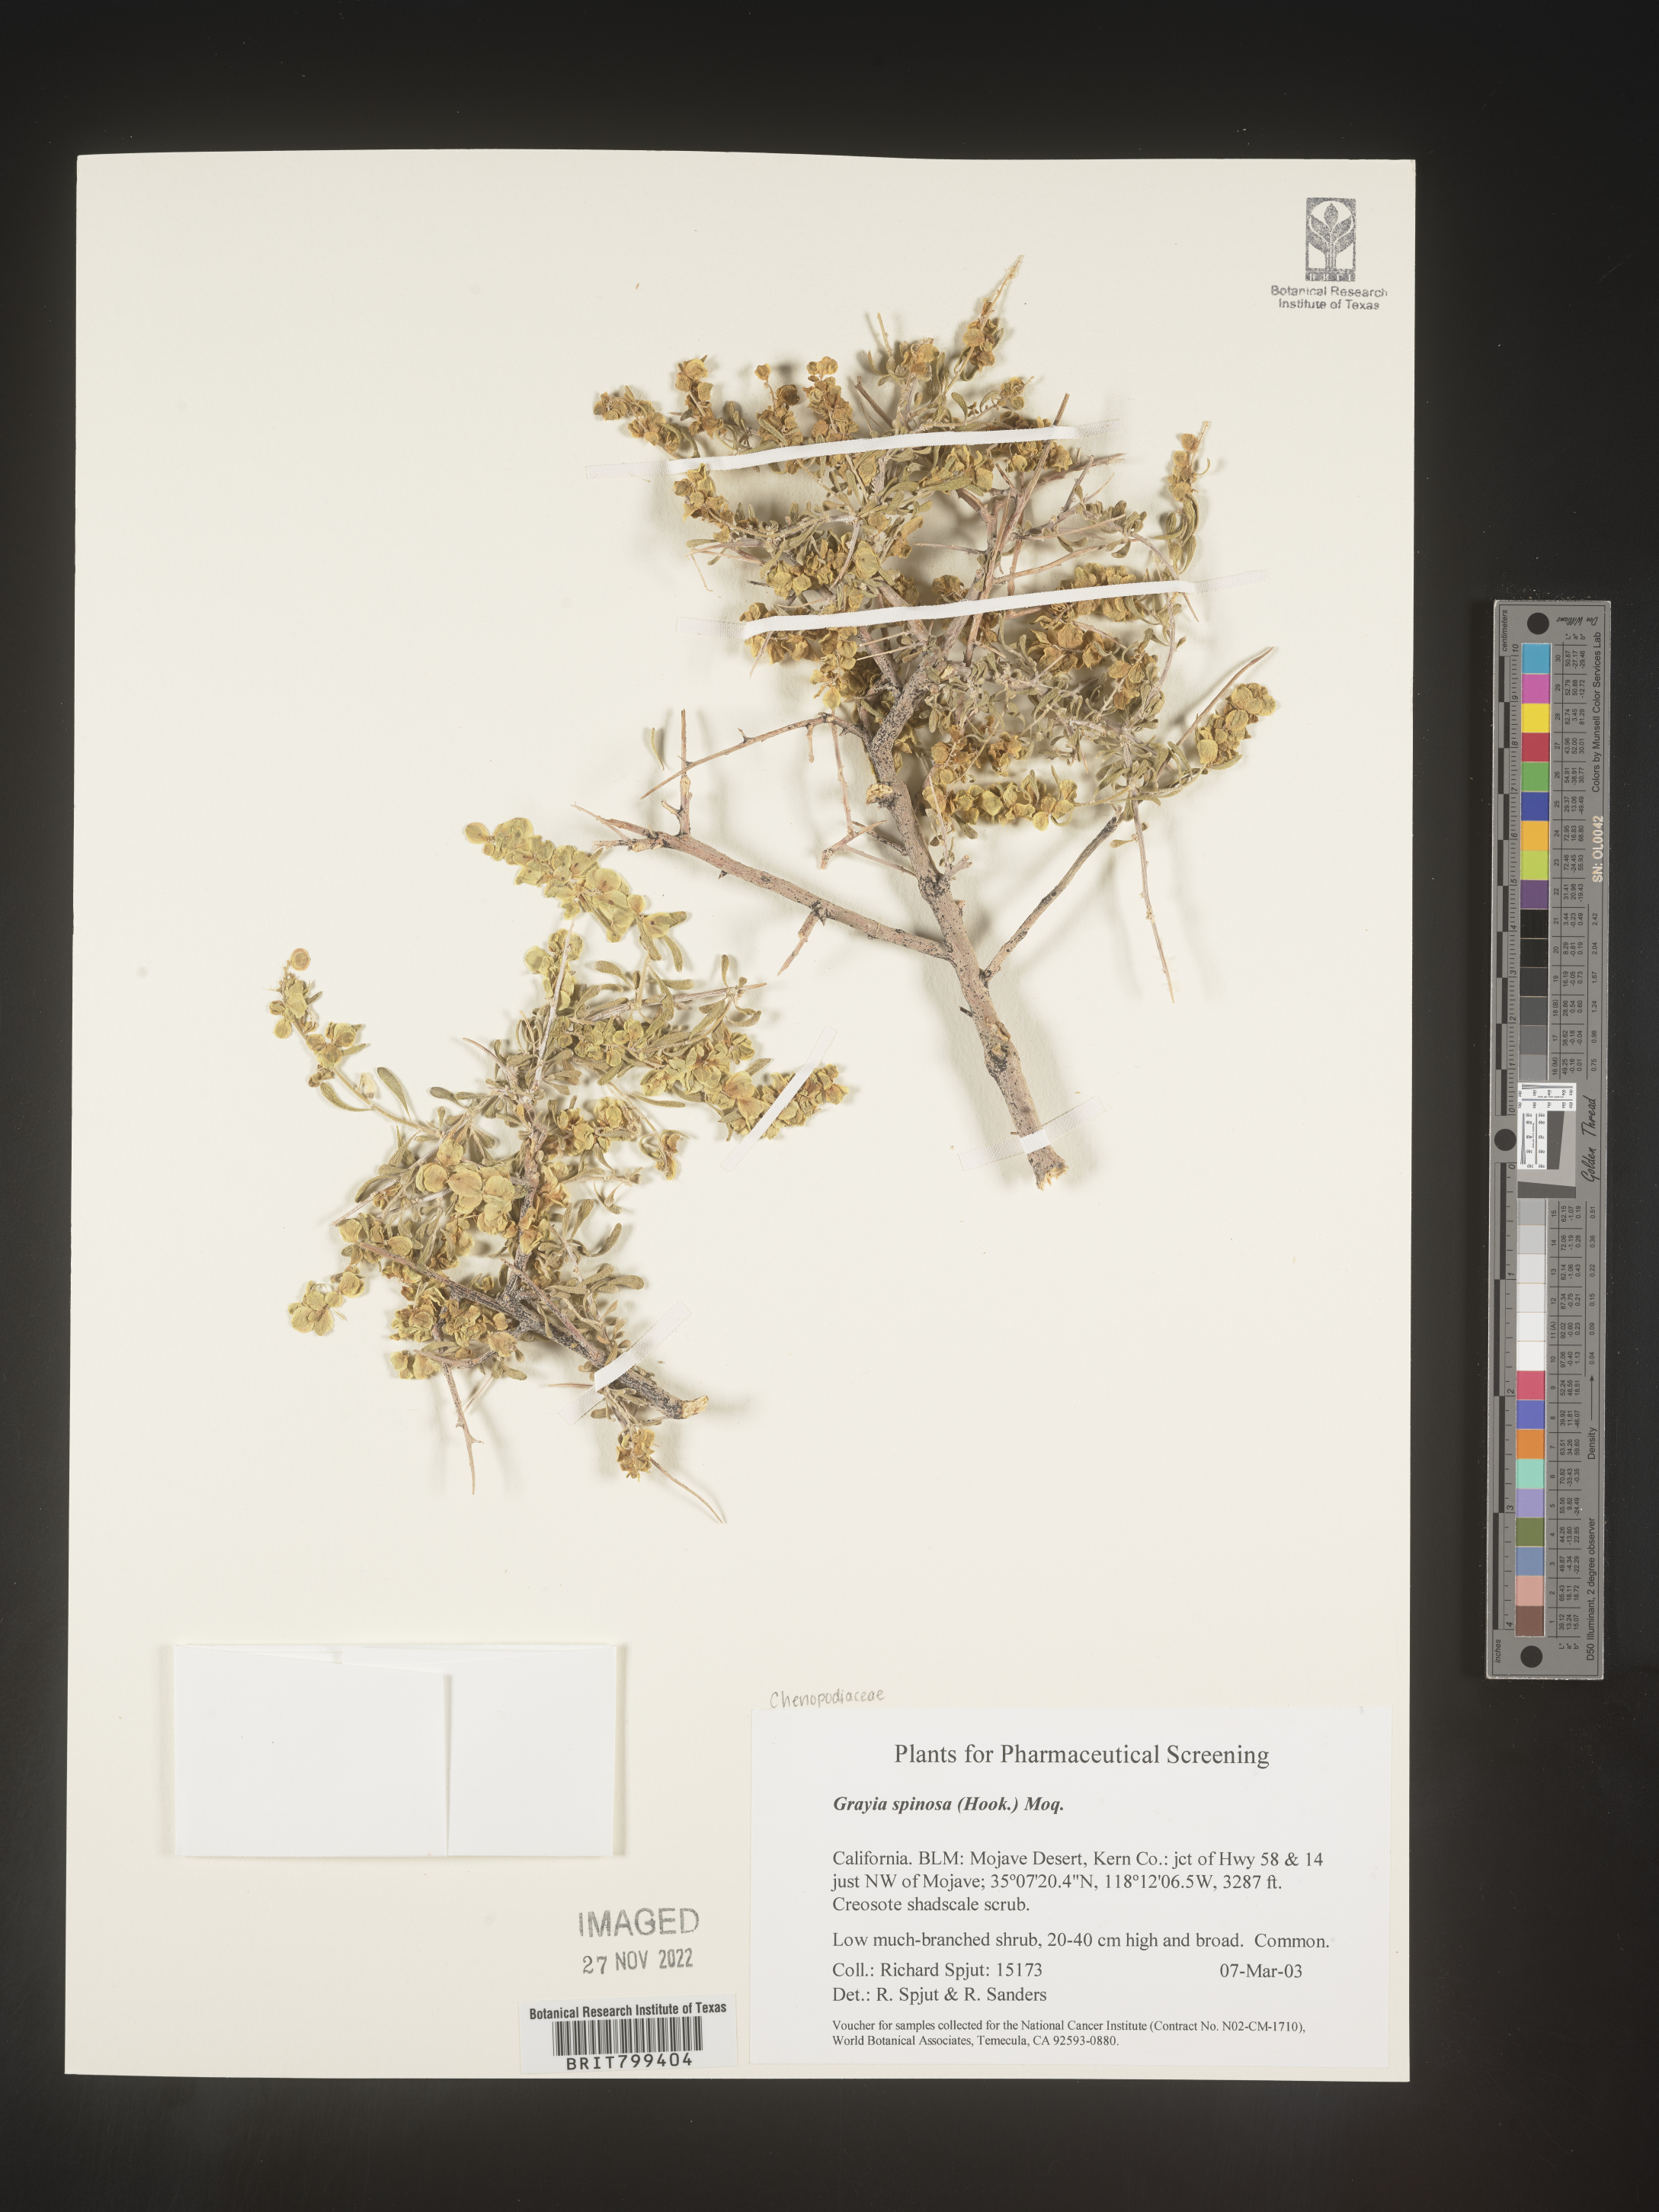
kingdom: Plantae
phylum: Tracheophyta
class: Magnoliopsida
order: Caryophyllales
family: Amaranthaceae
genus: Grayia
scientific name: Grayia spinosa
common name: Spiny hopsage
